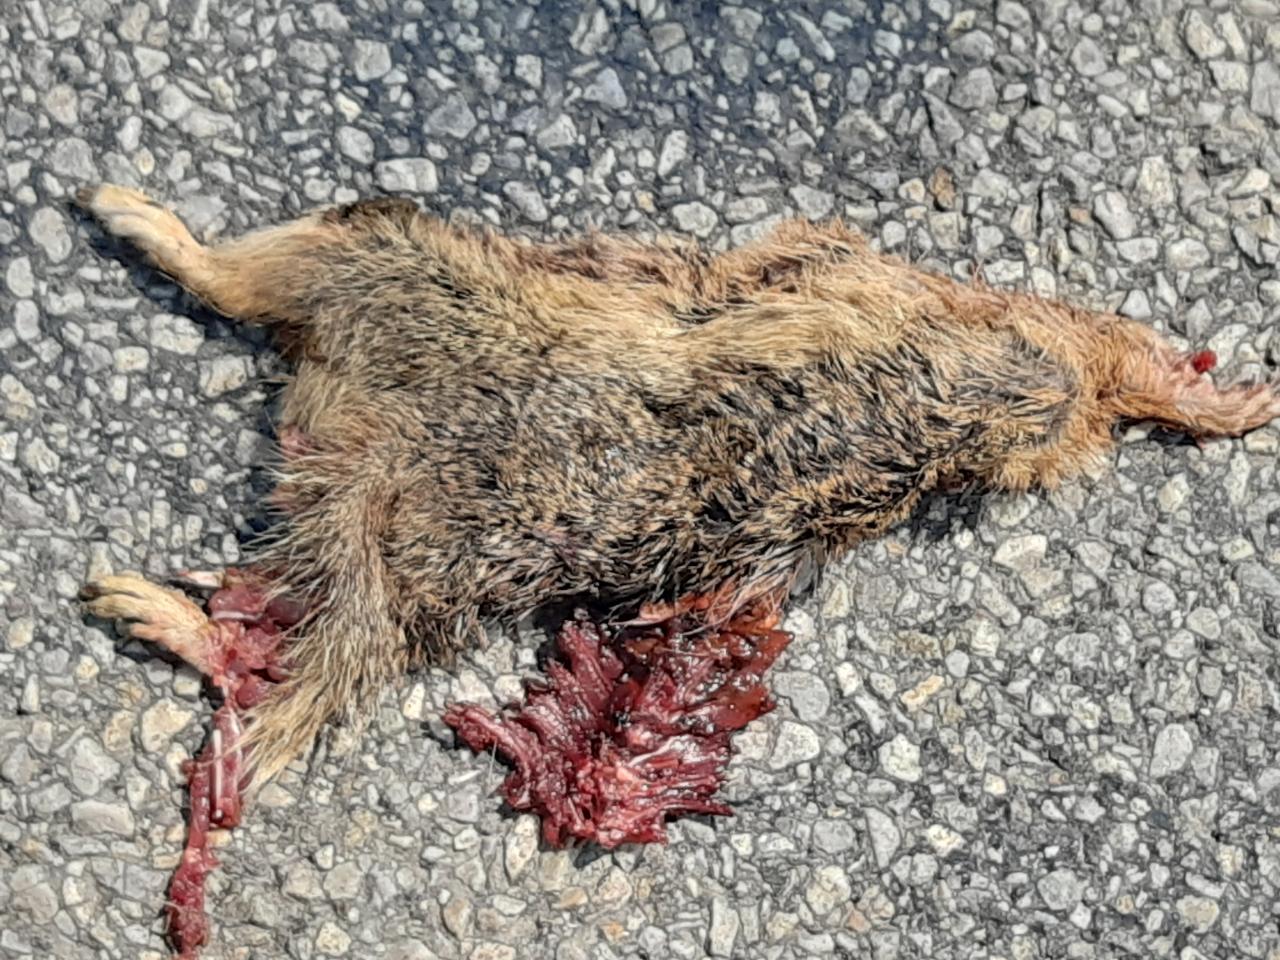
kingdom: Animalia
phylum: Chordata
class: Mammalia
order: Rodentia
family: Sciuridae
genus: Spermophilus
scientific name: Spermophilus citellus
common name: European ground squirrel
